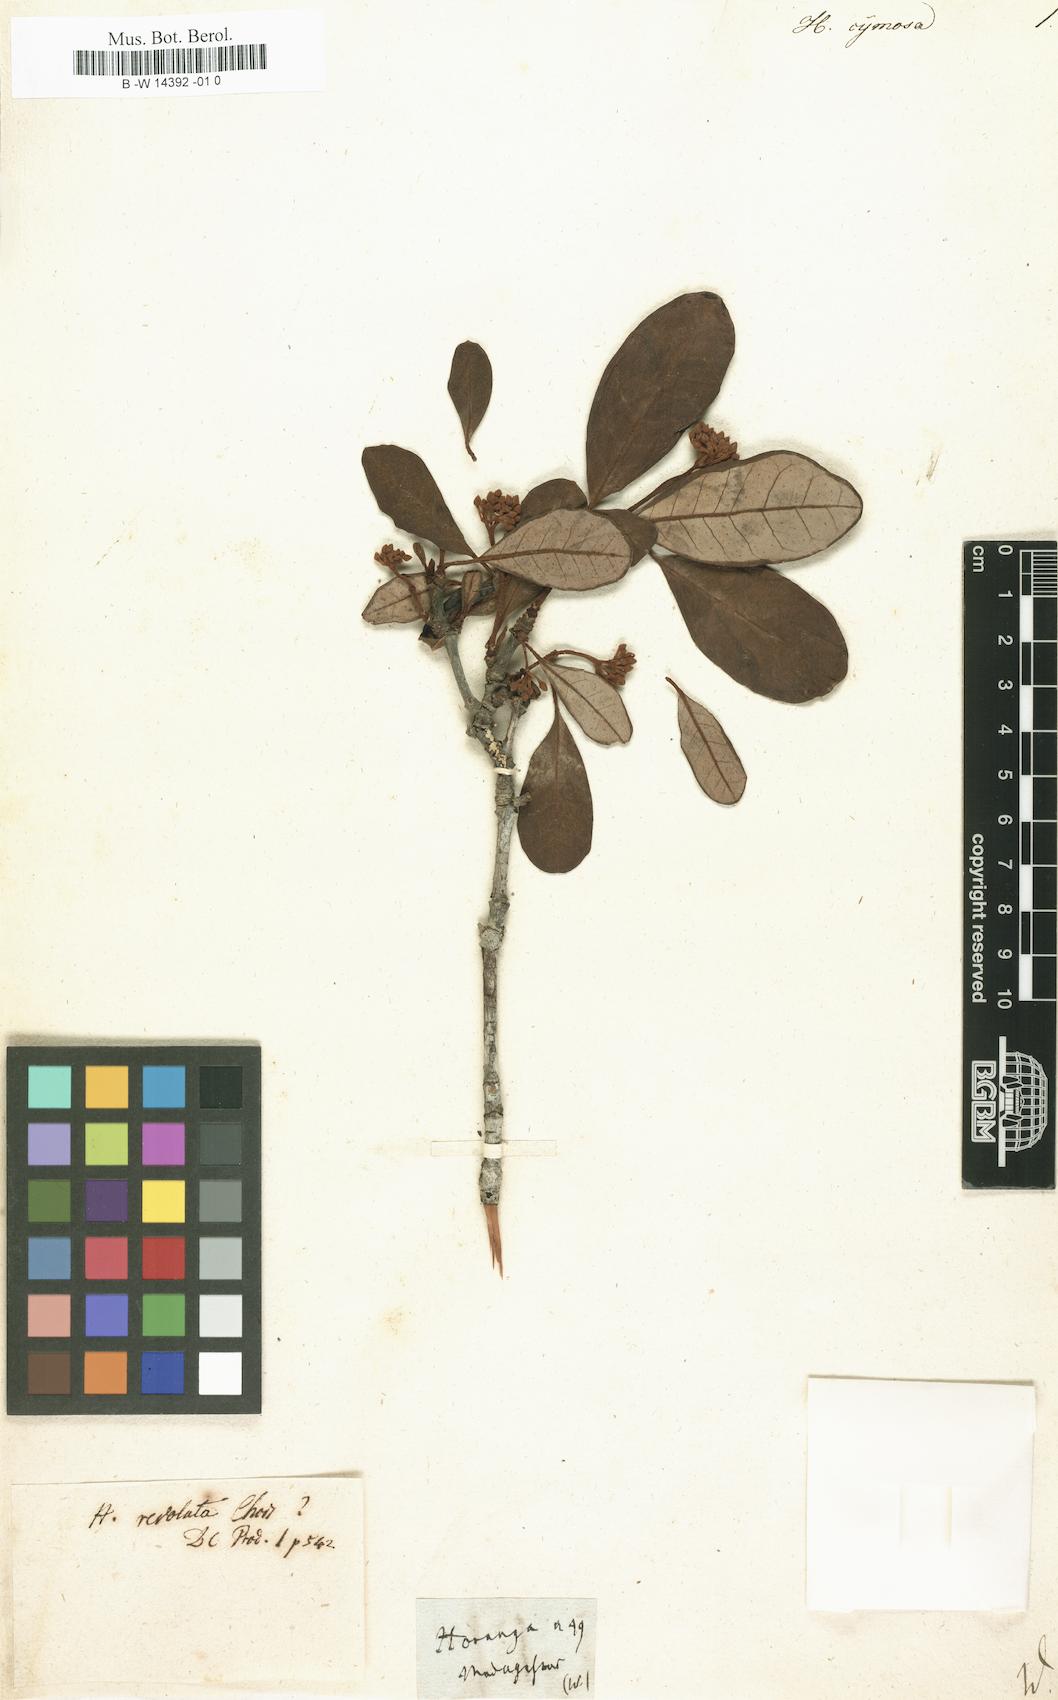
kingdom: Plantae
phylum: Tracheophyta
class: Magnoliopsida
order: Malpighiales
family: Hypericaceae
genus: Harungana
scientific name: Harungana
